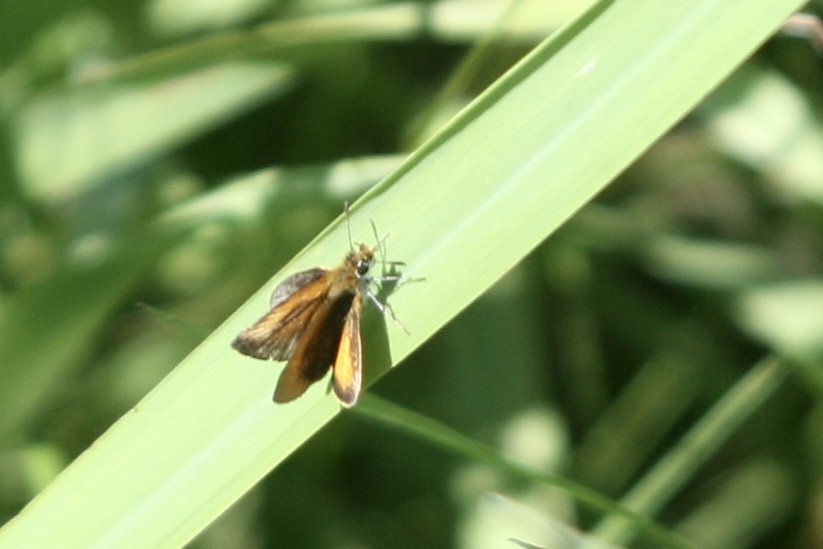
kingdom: Animalia
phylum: Arthropoda
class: Insecta
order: Lepidoptera
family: Hesperiidae
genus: Ancyloxypha
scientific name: Ancyloxypha numitor
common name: Least Skipper
